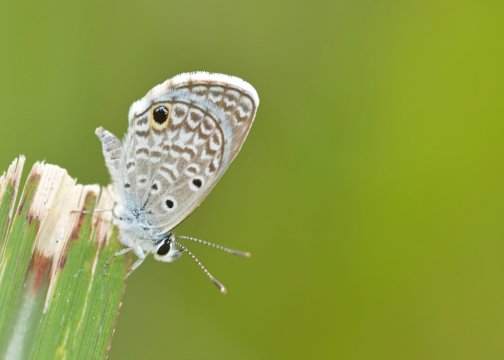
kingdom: Animalia
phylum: Arthropoda
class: Insecta
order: Lepidoptera
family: Lycaenidae
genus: Hemiargus
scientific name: Hemiargus ceraunus
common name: Ceraunus Blue
